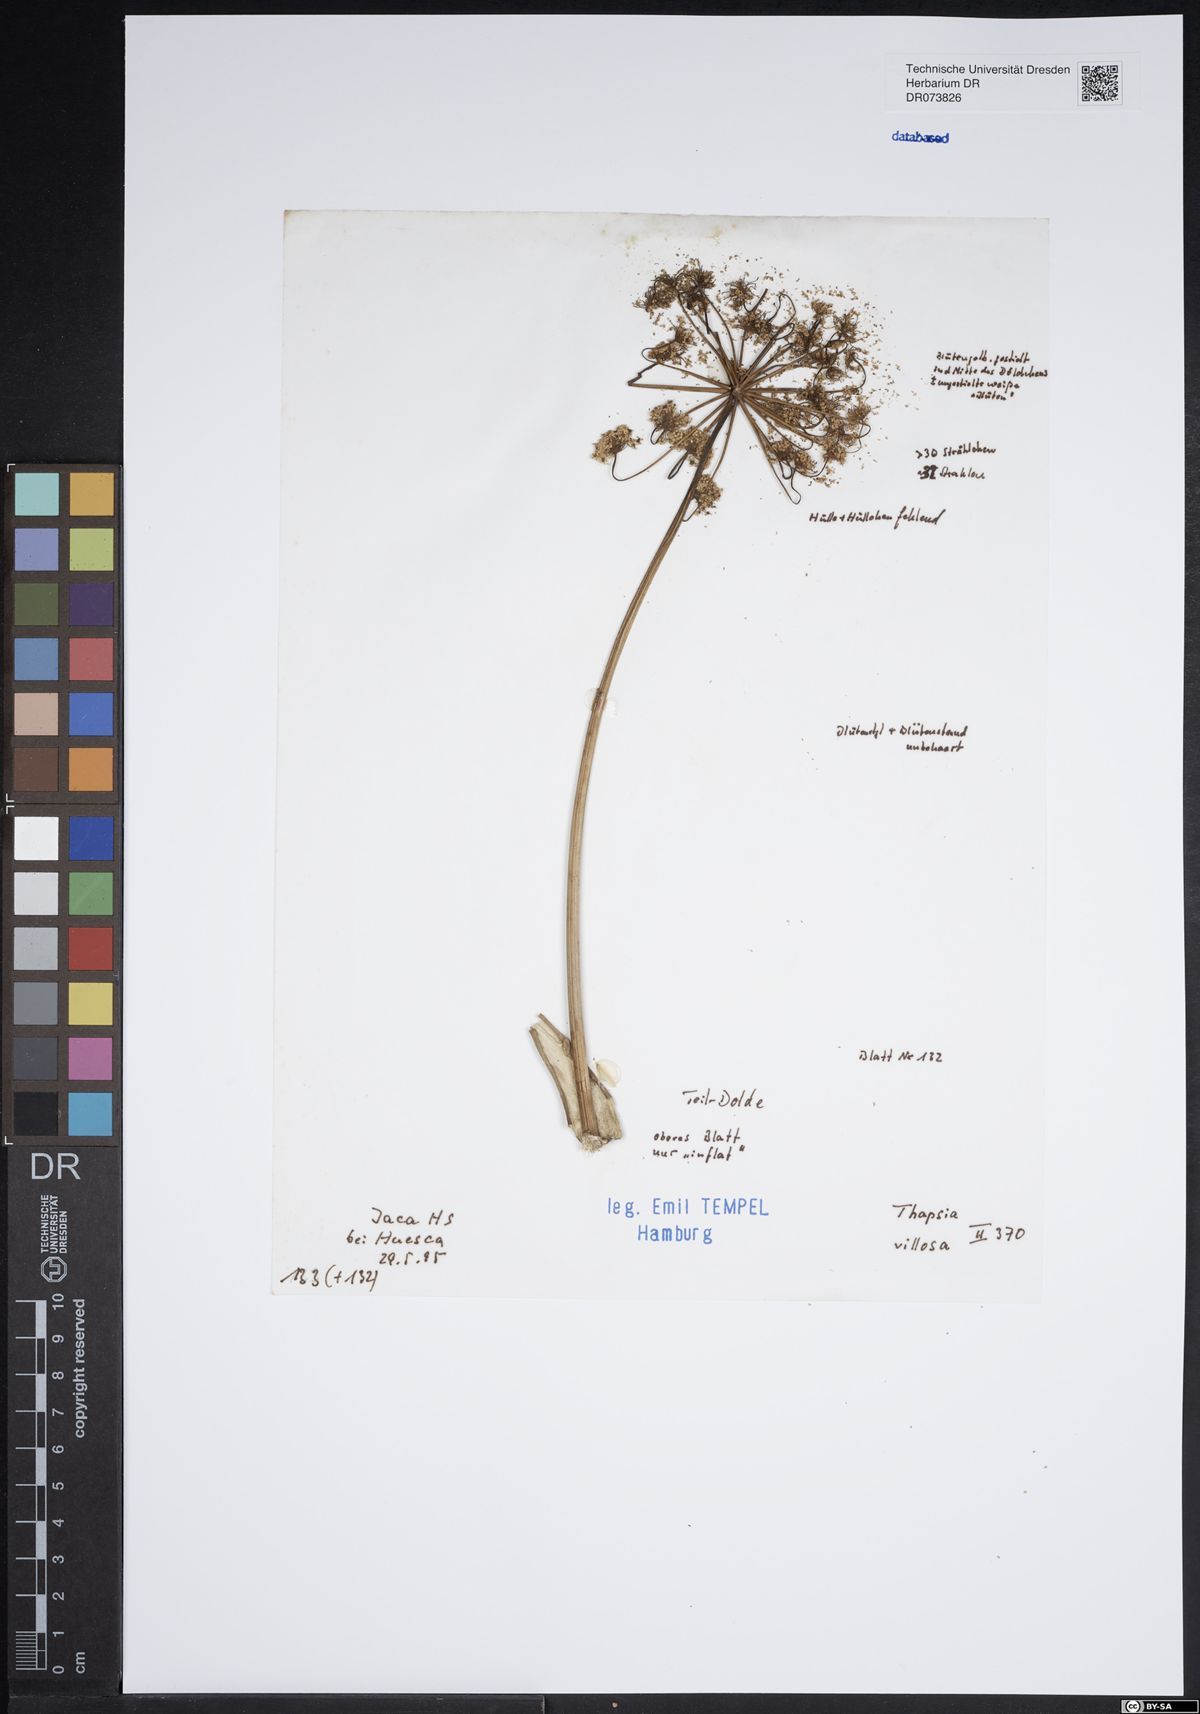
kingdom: Plantae
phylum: Tracheophyta
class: Magnoliopsida
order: Apiales
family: Apiaceae
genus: Thapsia
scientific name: Thapsia villosa
